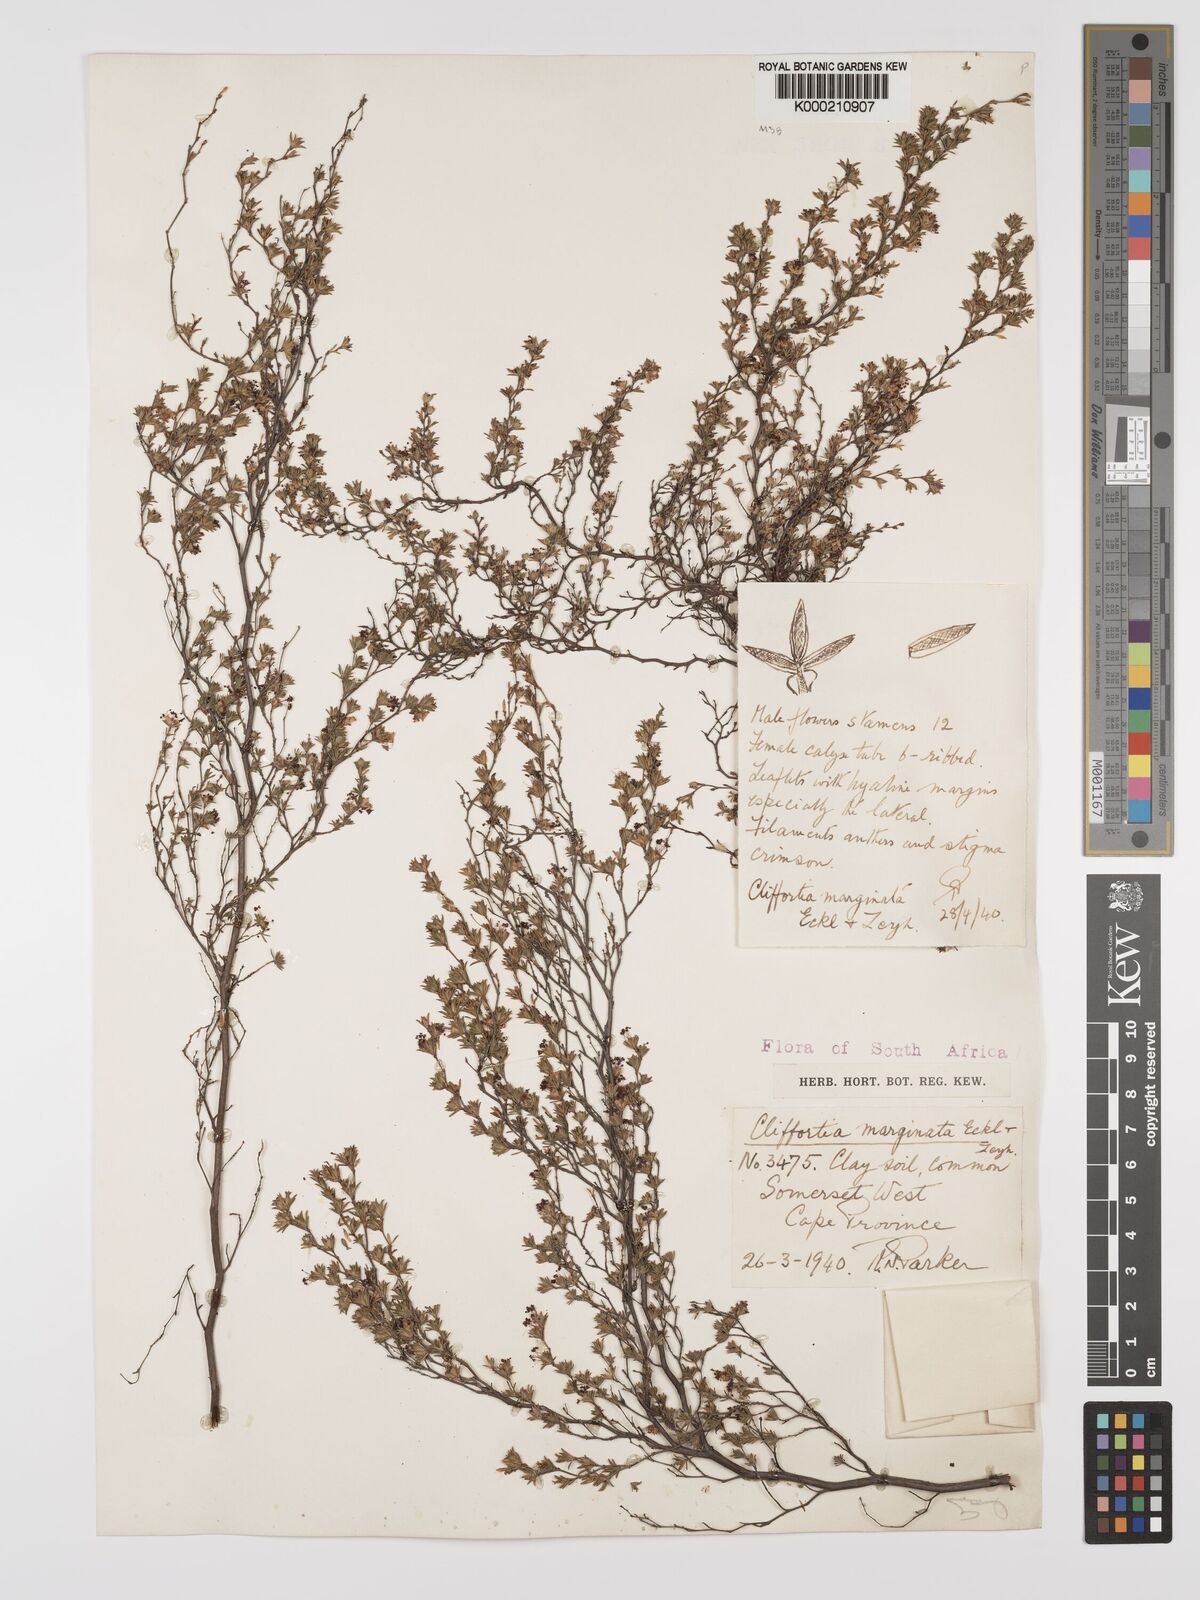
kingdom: Plantae
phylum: Tracheophyta
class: Magnoliopsida
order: Rosales
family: Rosaceae
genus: Cliffortia
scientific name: Cliffortia marginata
